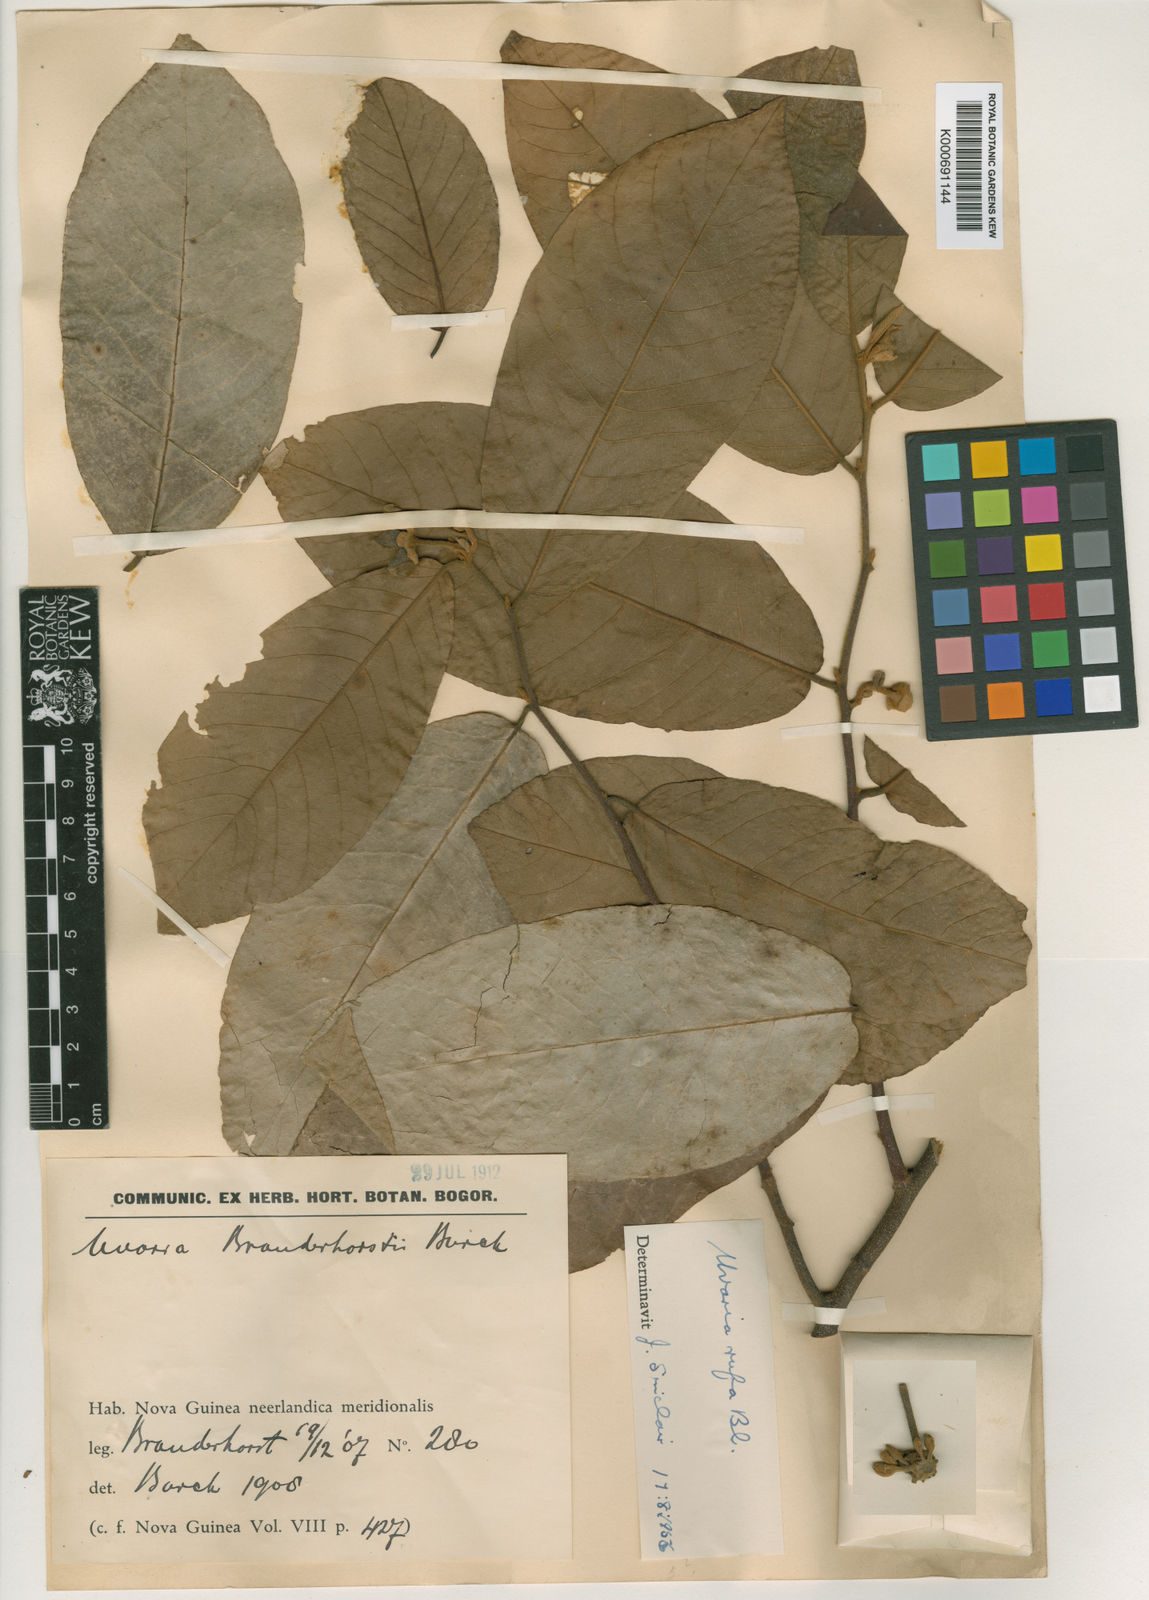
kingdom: Plantae
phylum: Tracheophyta
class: Magnoliopsida
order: Magnoliales
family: Annonaceae
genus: Uvaria
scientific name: Uvaria rufa
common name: Torres strait scrambler
